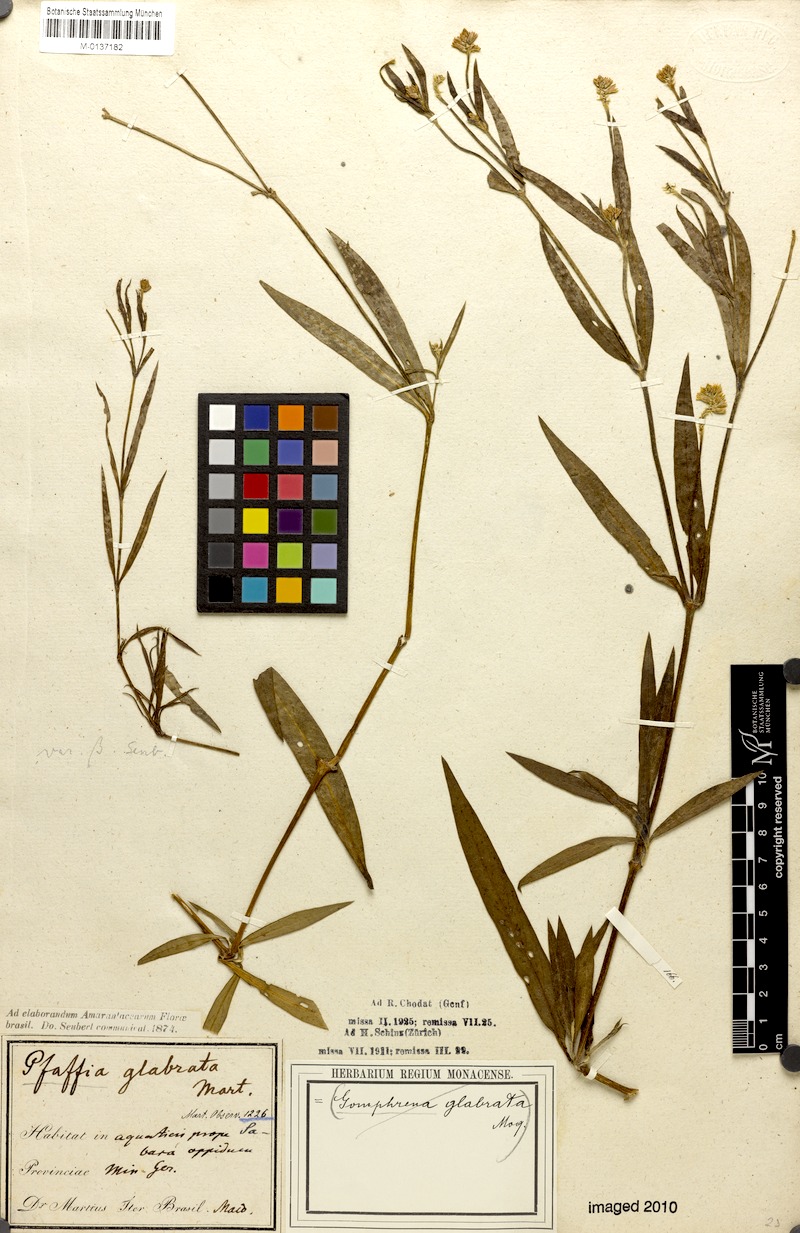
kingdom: Plantae
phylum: Tracheophyta
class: Magnoliopsida
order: Caryophyllales
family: Amaranthaceae
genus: Pfaffia
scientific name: Pfaffia glabrata
